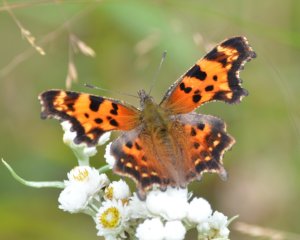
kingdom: Animalia
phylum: Arthropoda
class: Insecta
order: Lepidoptera
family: Nymphalidae
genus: Polygonia
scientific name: Polygonia faunus
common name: Green Comma
